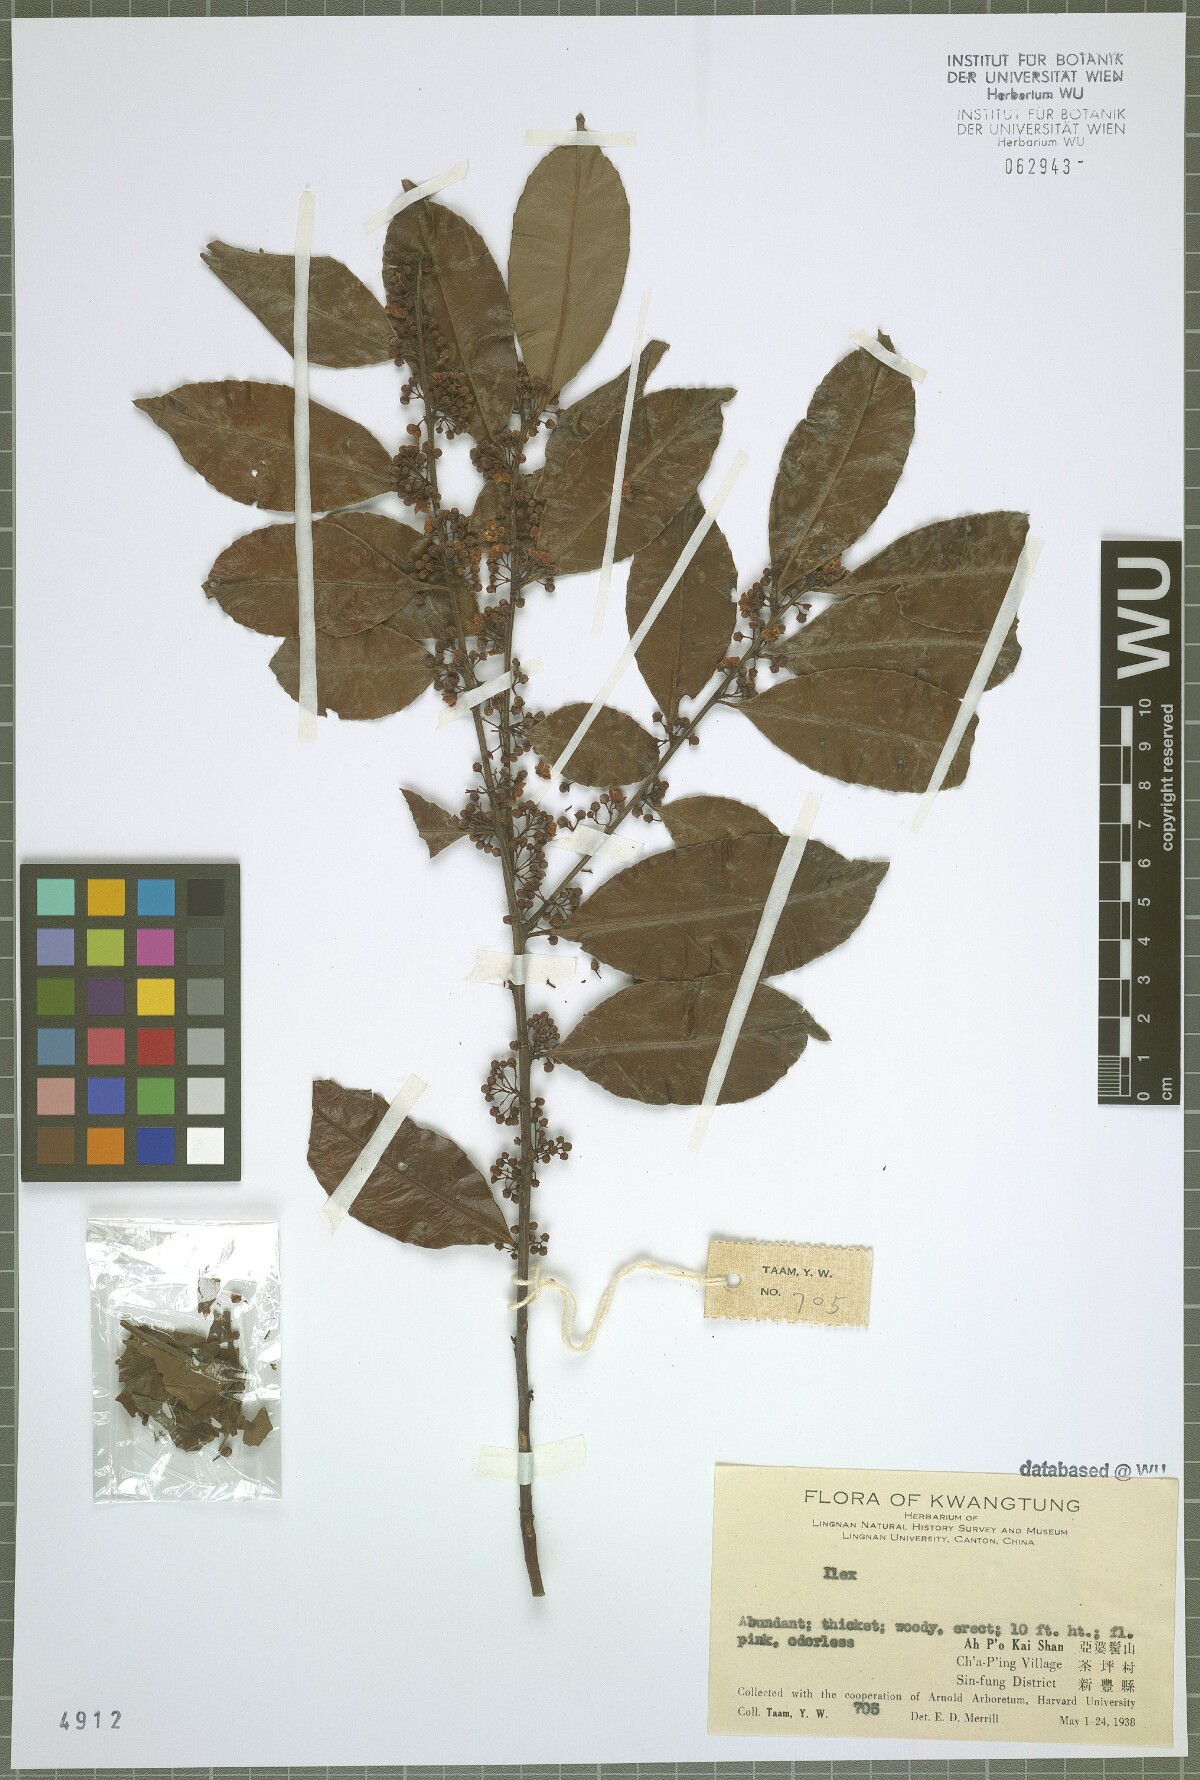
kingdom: Plantae
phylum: Tracheophyta
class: Magnoliopsida
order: Aquifoliales
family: Aquifoliaceae
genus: Ilex
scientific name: Ilex
